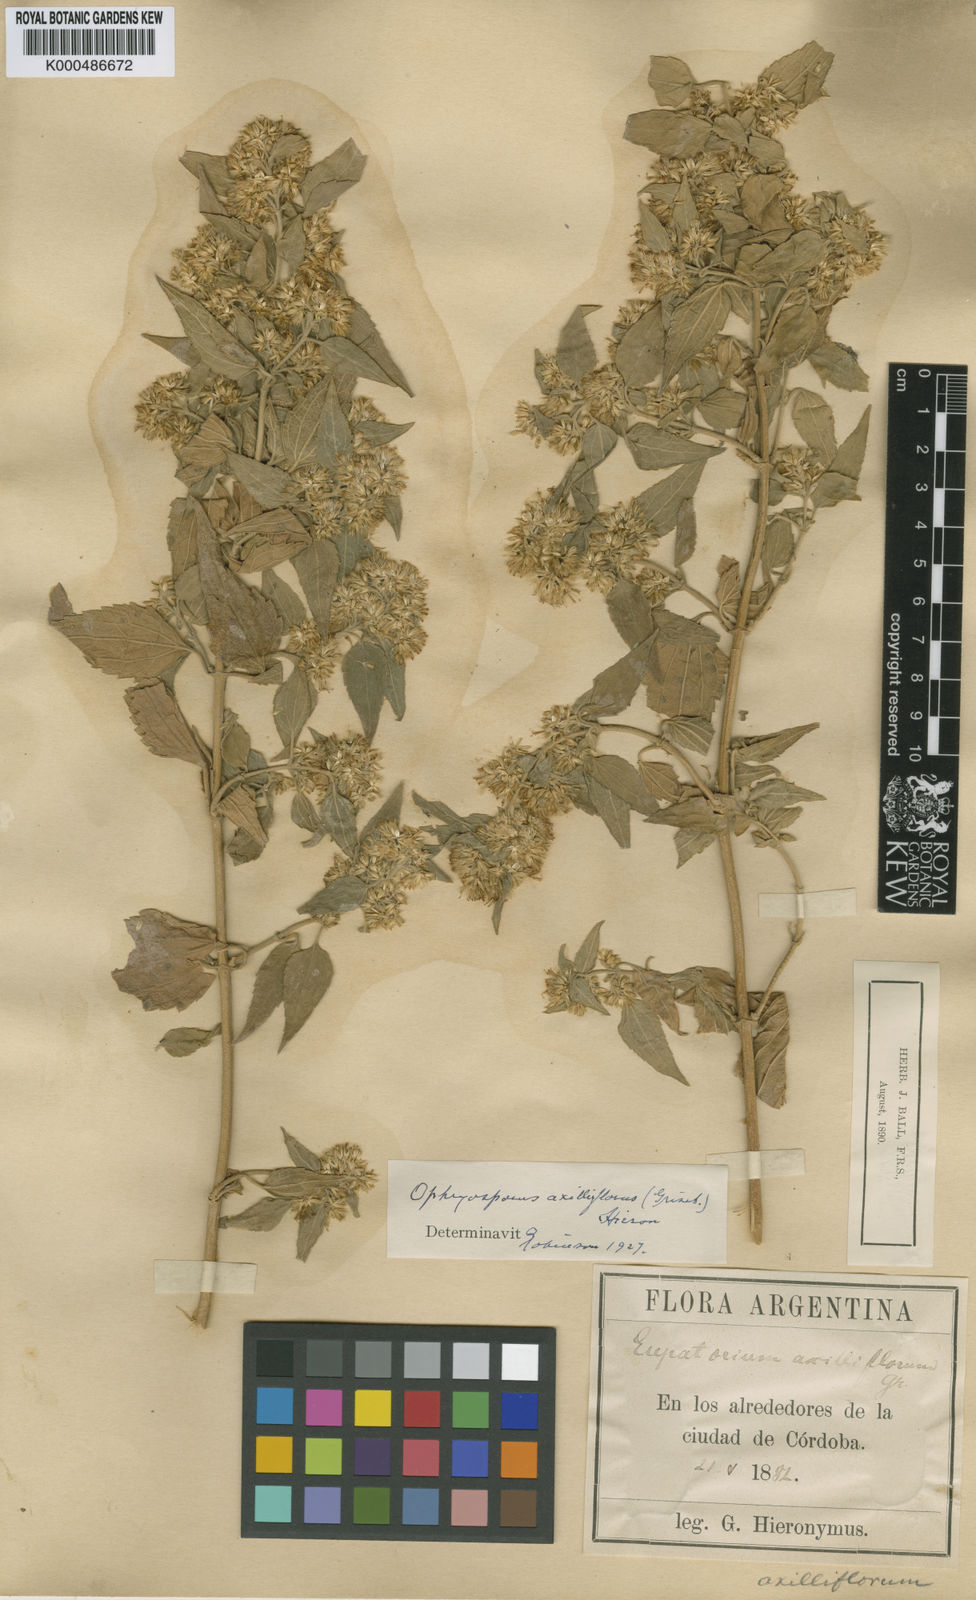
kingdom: Plantae
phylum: Tracheophyta
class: Magnoliopsida
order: Asterales
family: Asteraceae
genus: Ophryosporus
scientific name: Ophryosporus axilliflorus
